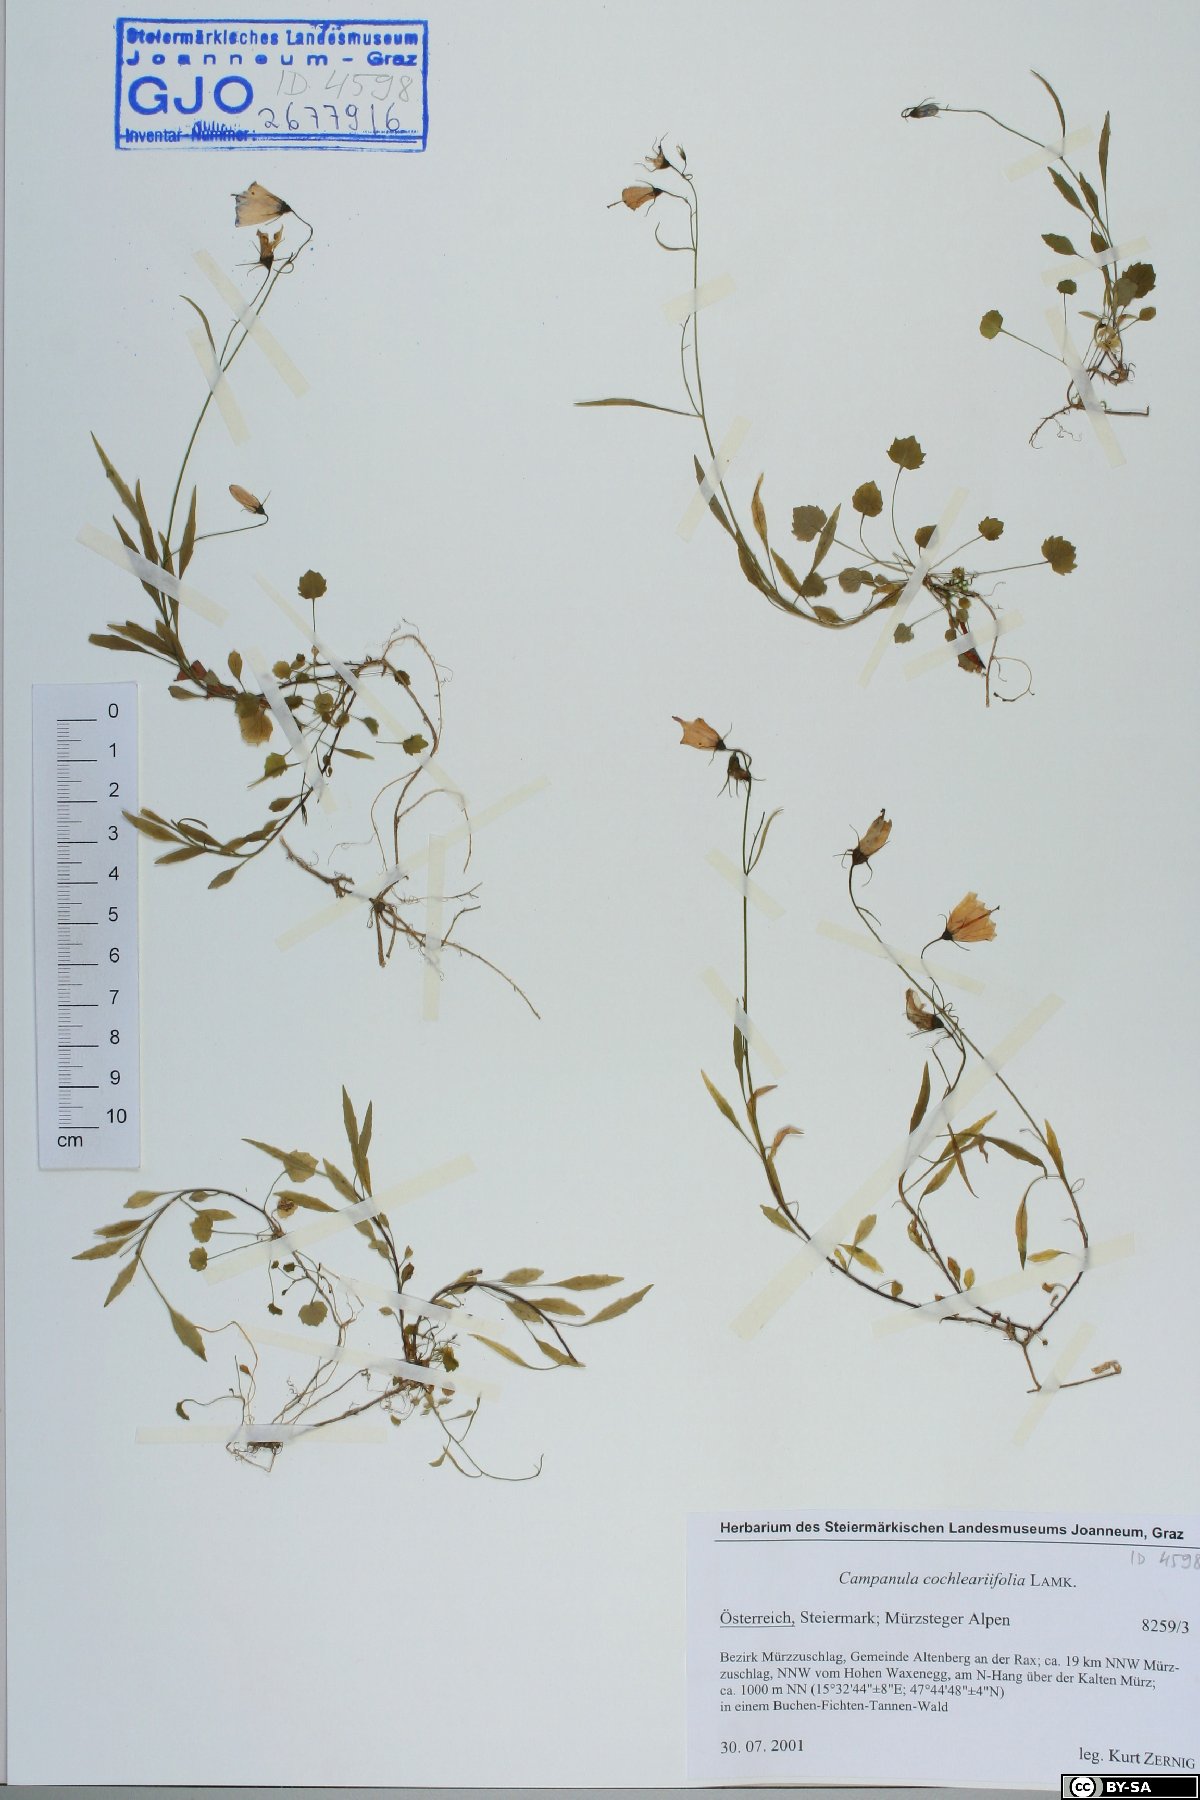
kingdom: Plantae
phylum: Tracheophyta
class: Magnoliopsida
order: Asterales
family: Campanulaceae
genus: Campanula
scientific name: Campanula cochleariifolia
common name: Fairies'-thimbles
